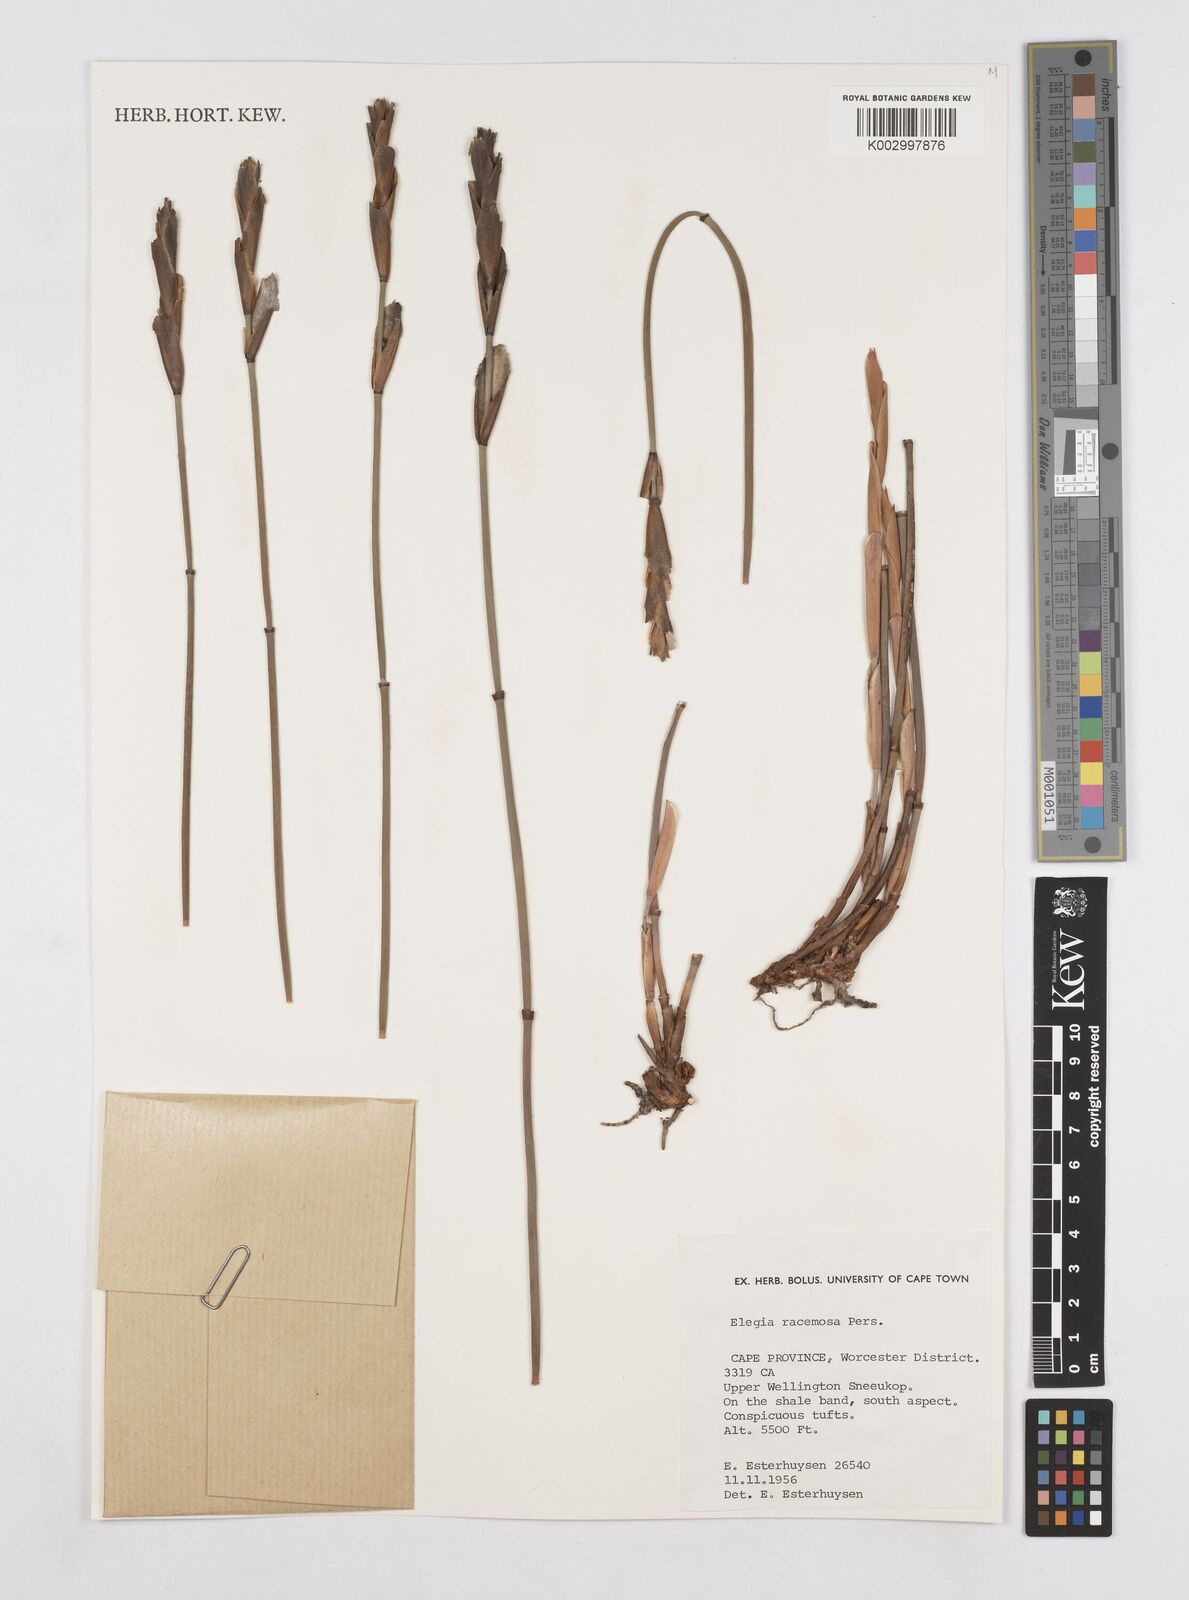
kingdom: Plantae
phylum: Tracheophyta
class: Liliopsida
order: Poales
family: Restionaceae
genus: Elegia
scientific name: Elegia racemosa
